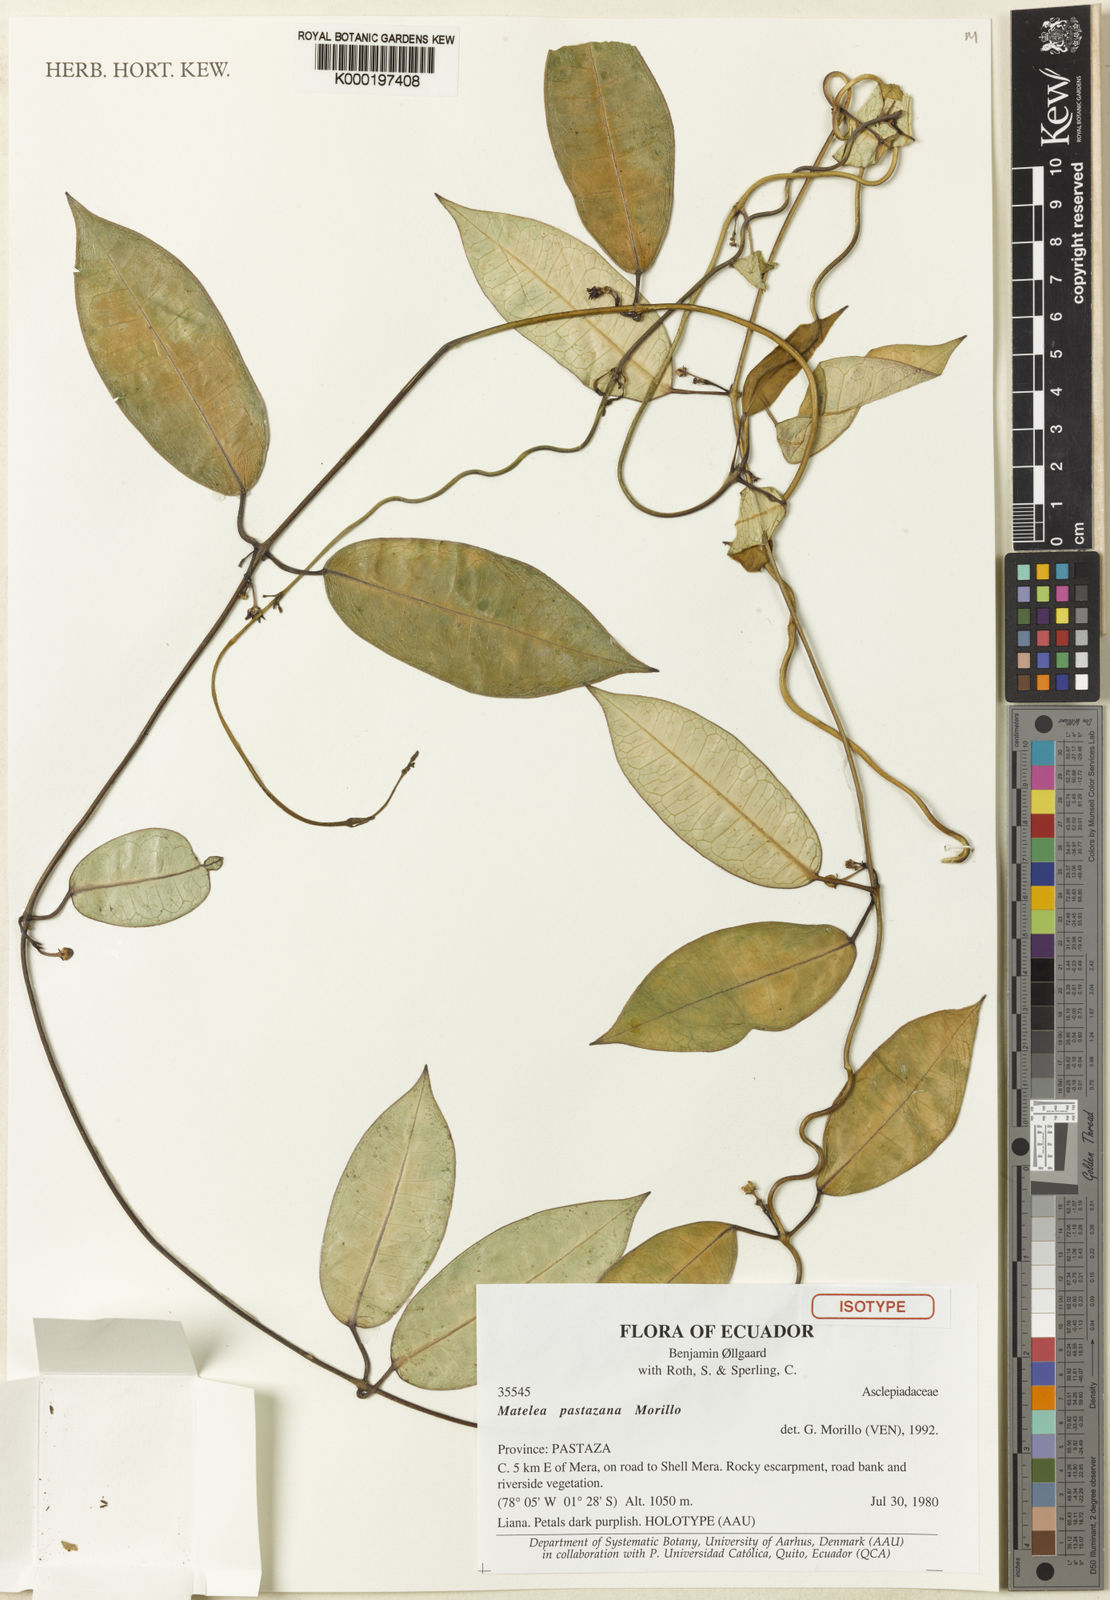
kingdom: Plantae
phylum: Tracheophyta
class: Magnoliopsida
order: Gentianales
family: Apocynaceae
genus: Matelea
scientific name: Matelea pastazana
